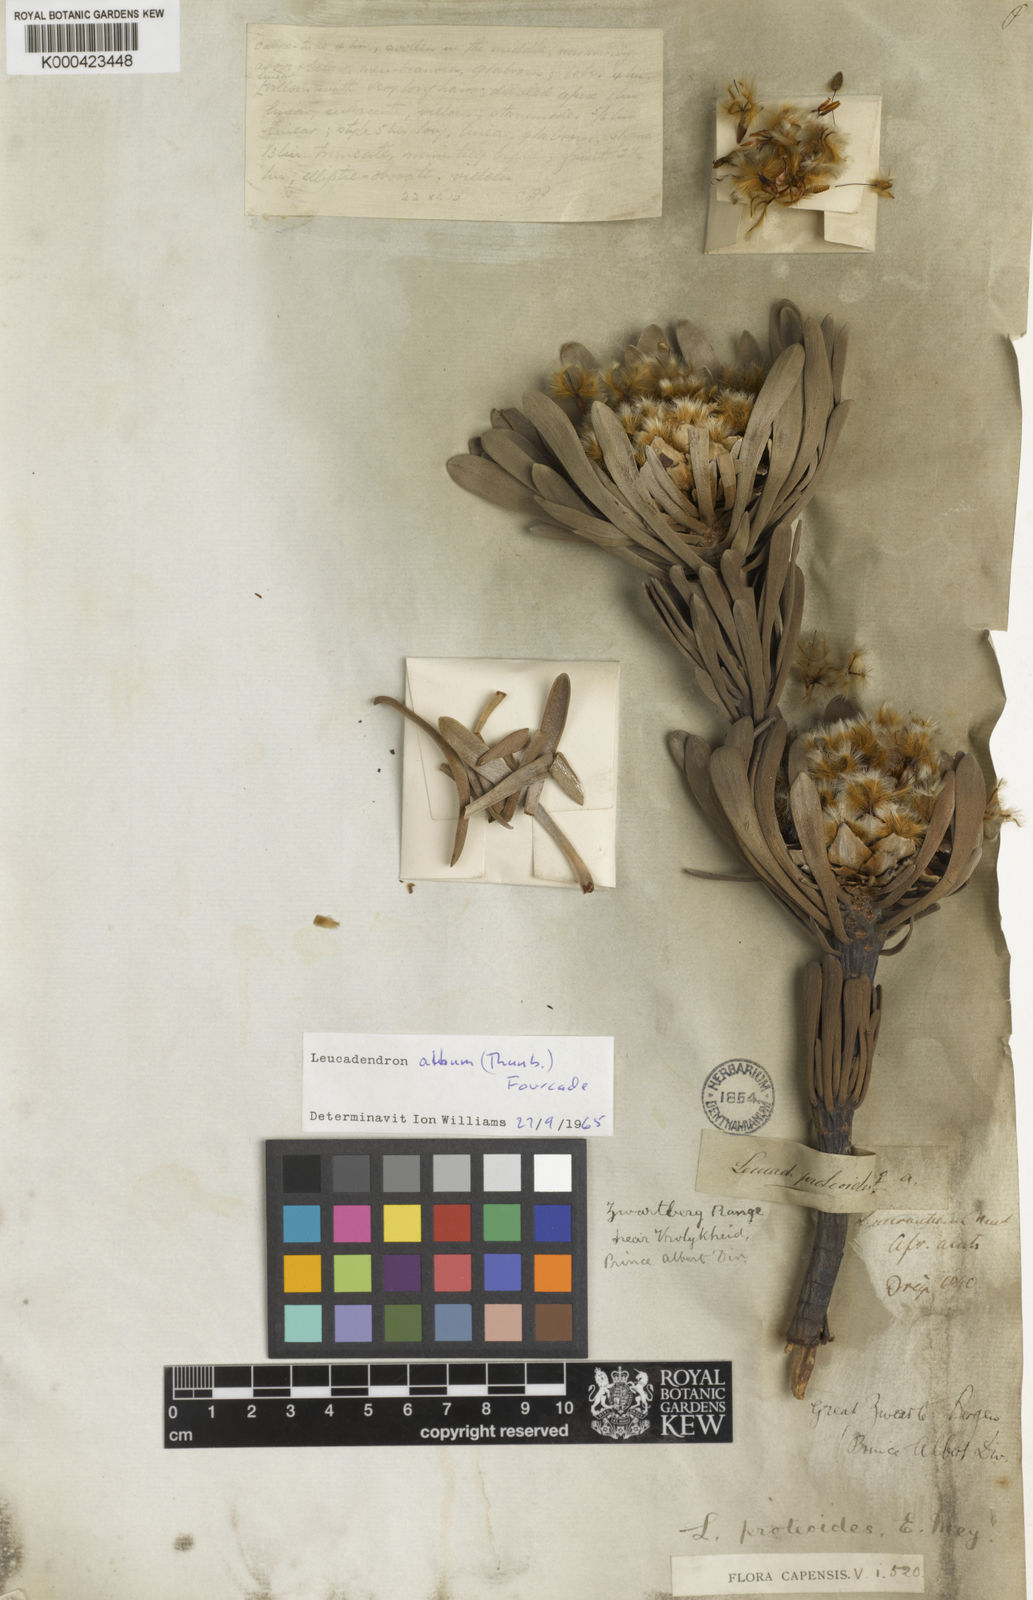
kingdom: Plantae
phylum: Tracheophyta
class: Magnoliopsida
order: Proteales
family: Proteaceae
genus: Leucadendron
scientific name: Leucadendron album
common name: Linear-leaf conebush
